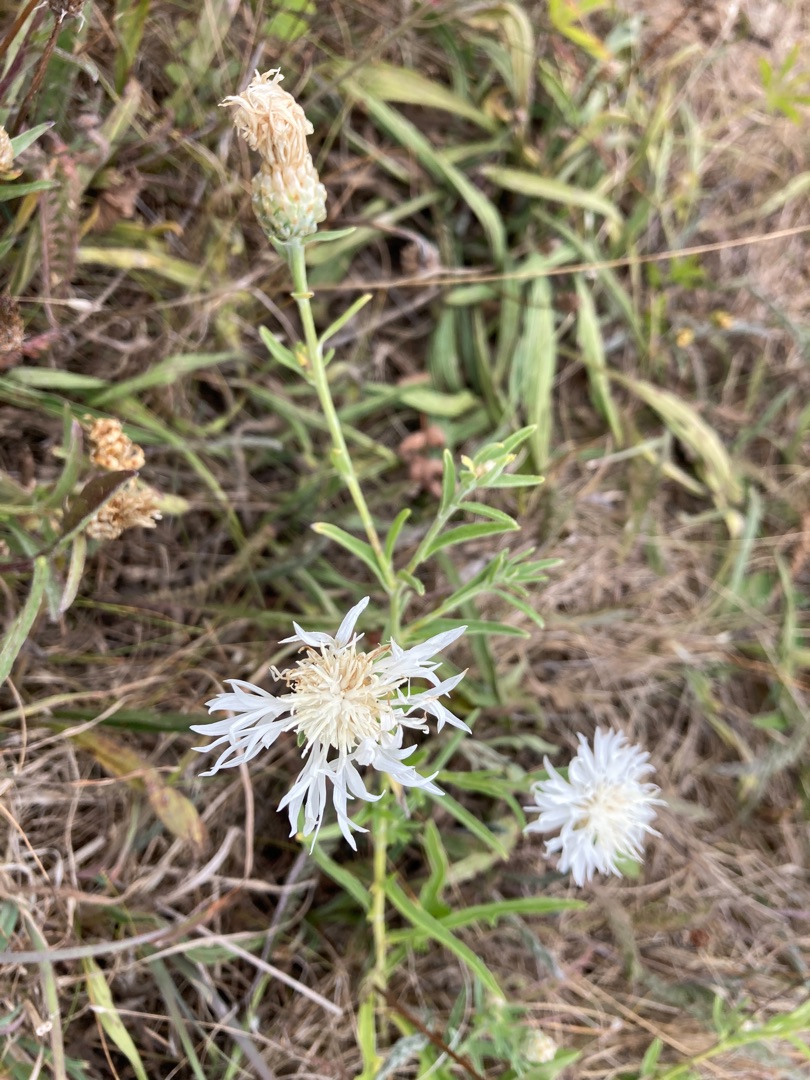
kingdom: Plantae
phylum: Tracheophyta
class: Magnoliopsida
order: Asterales
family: Asteraceae
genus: Centaurea
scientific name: Centaurea jacea
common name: Almindelig knopurt
